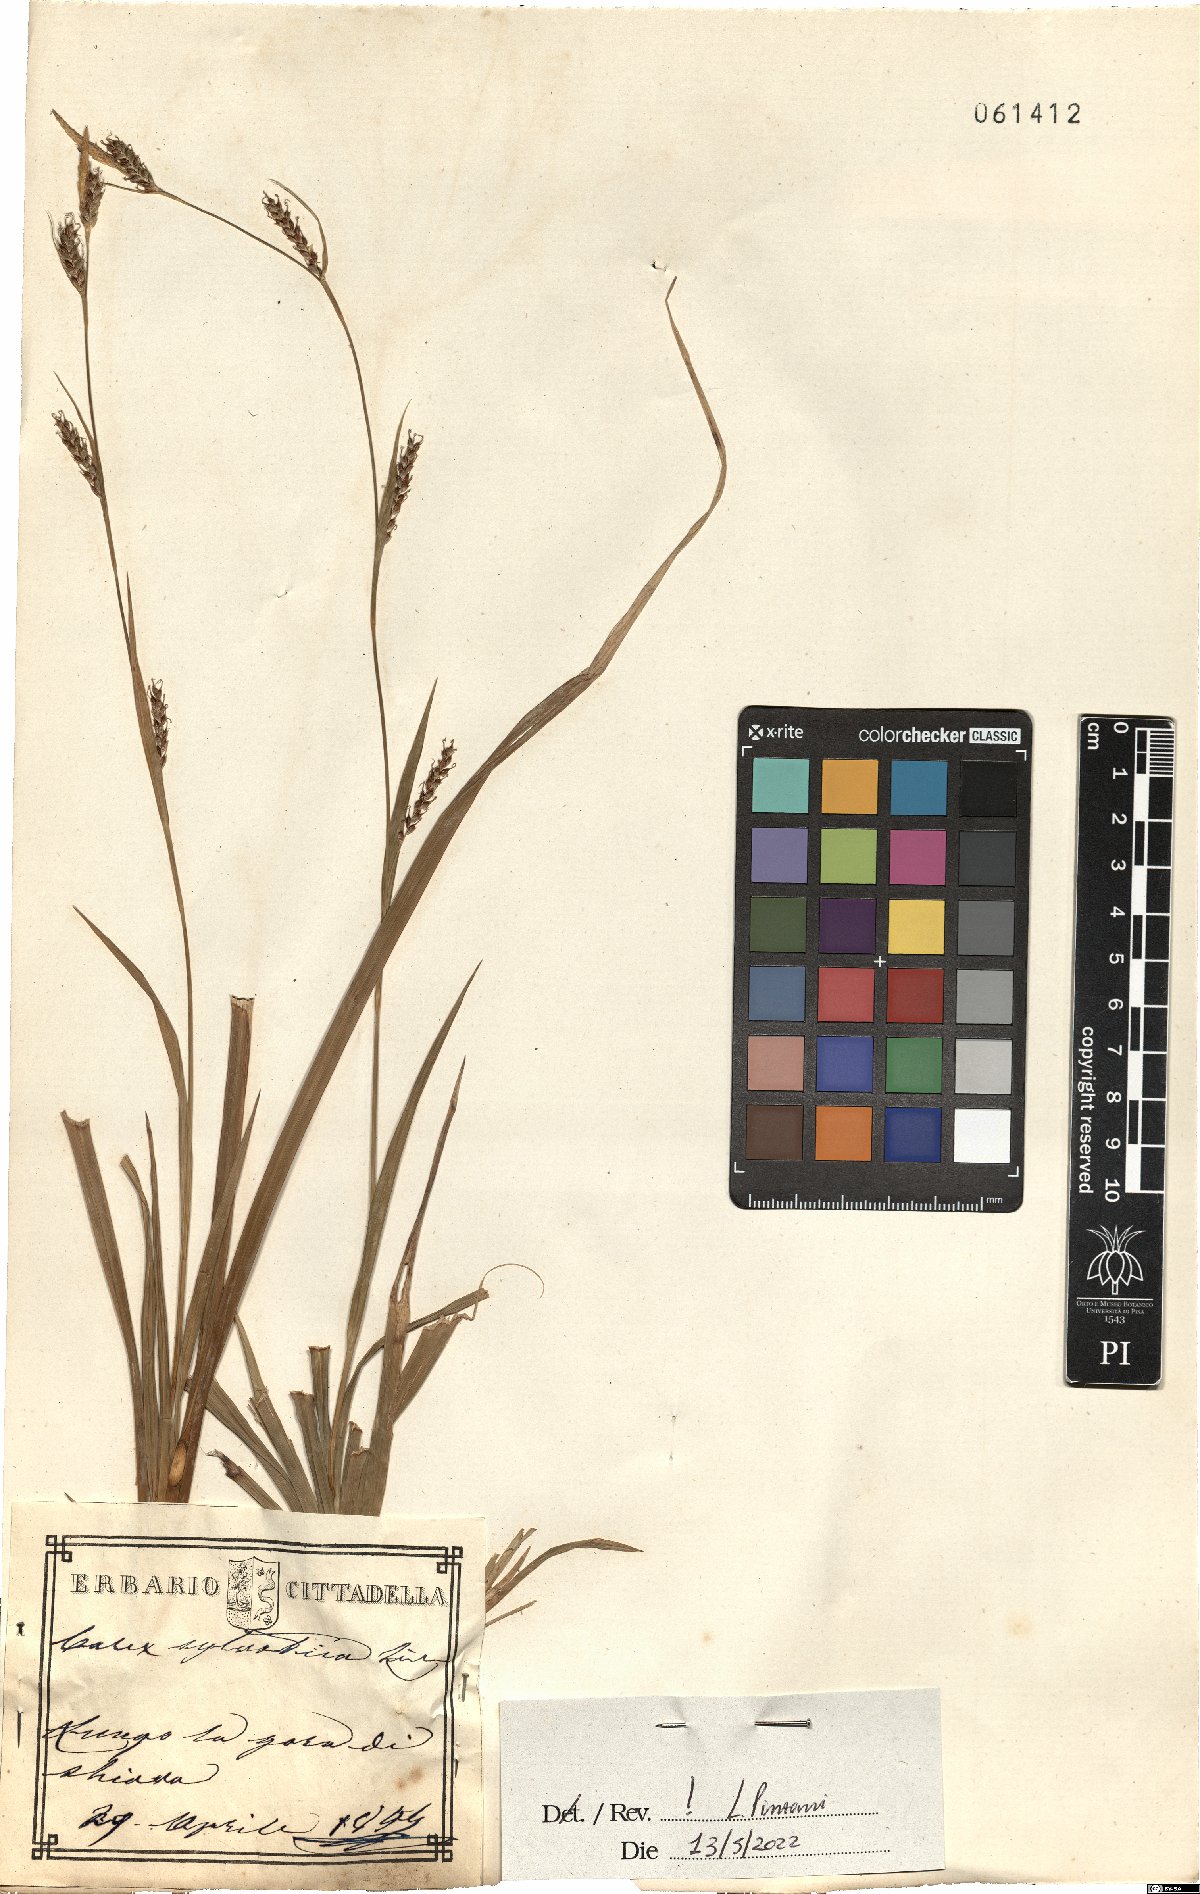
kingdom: Plantae
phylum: Tracheophyta
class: Liliopsida
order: Poales
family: Cyperaceae
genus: Carex
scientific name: Carex sylvatica
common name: Wood-sedge
